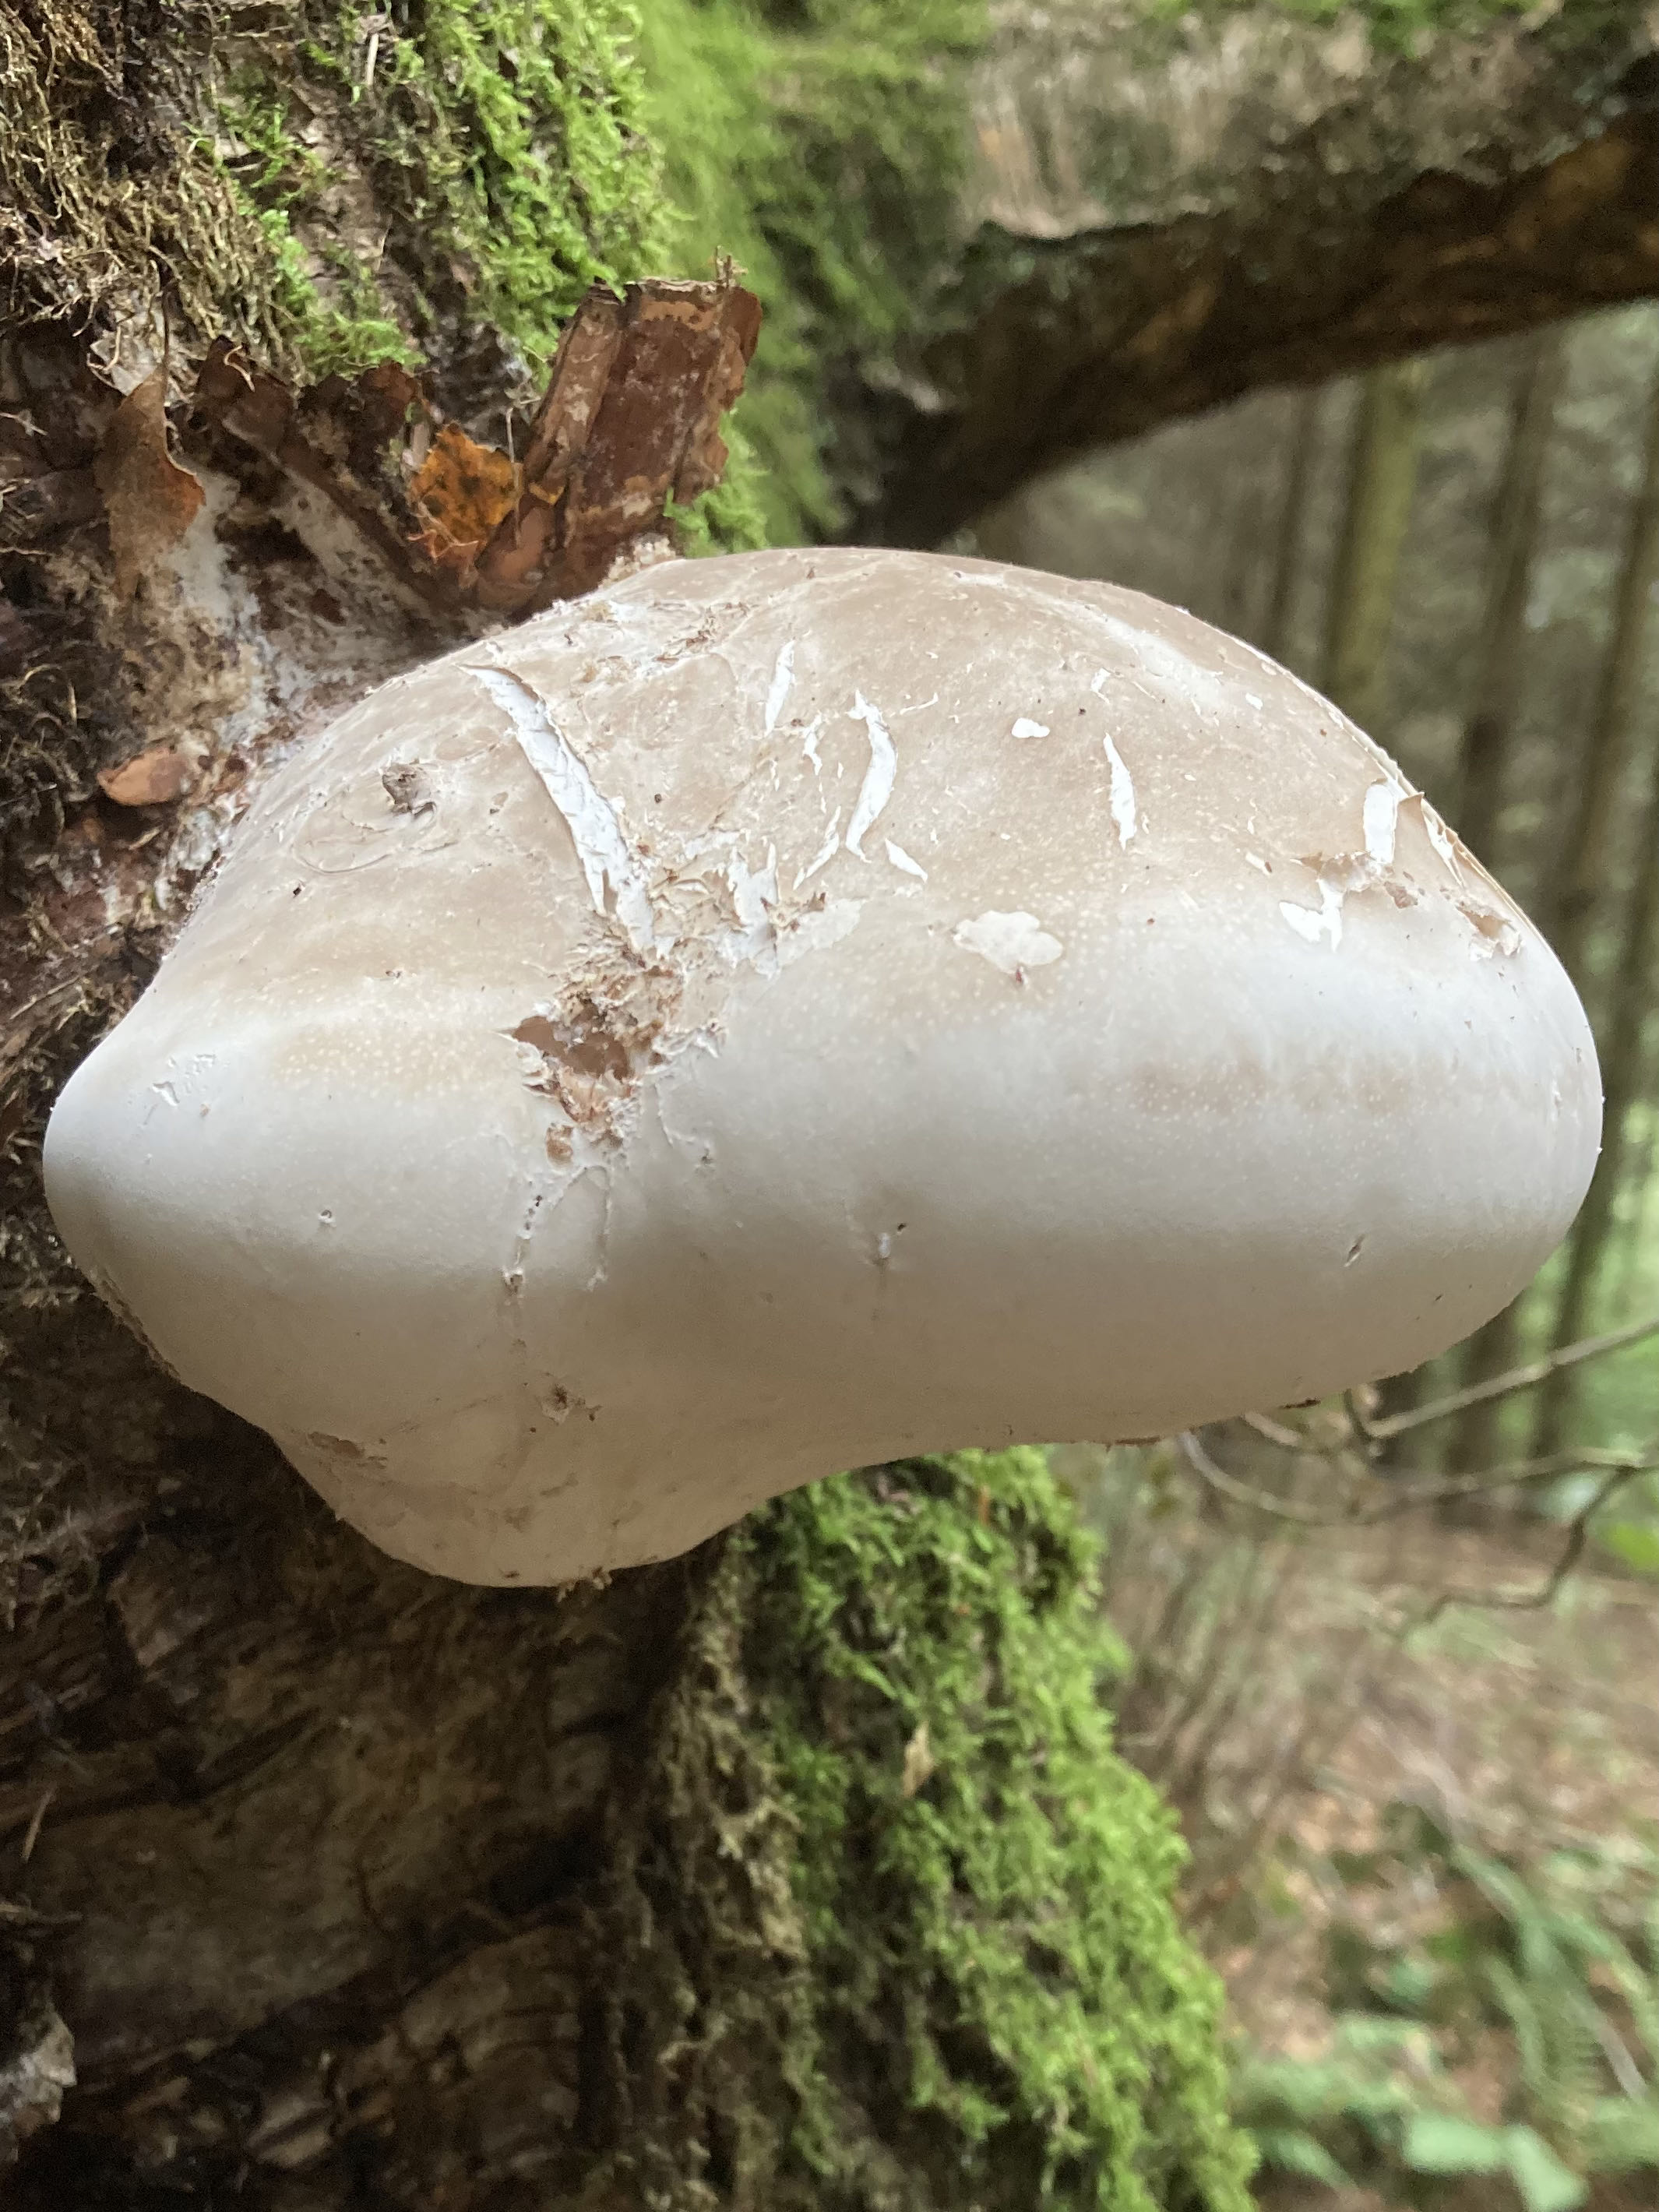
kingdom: Fungi
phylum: Basidiomycota
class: Agaricomycetes
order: Polyporales
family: Fomitopsidaceae
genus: Fomitopsis
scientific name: Fomitopsis betulina
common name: birkeporesvamp
